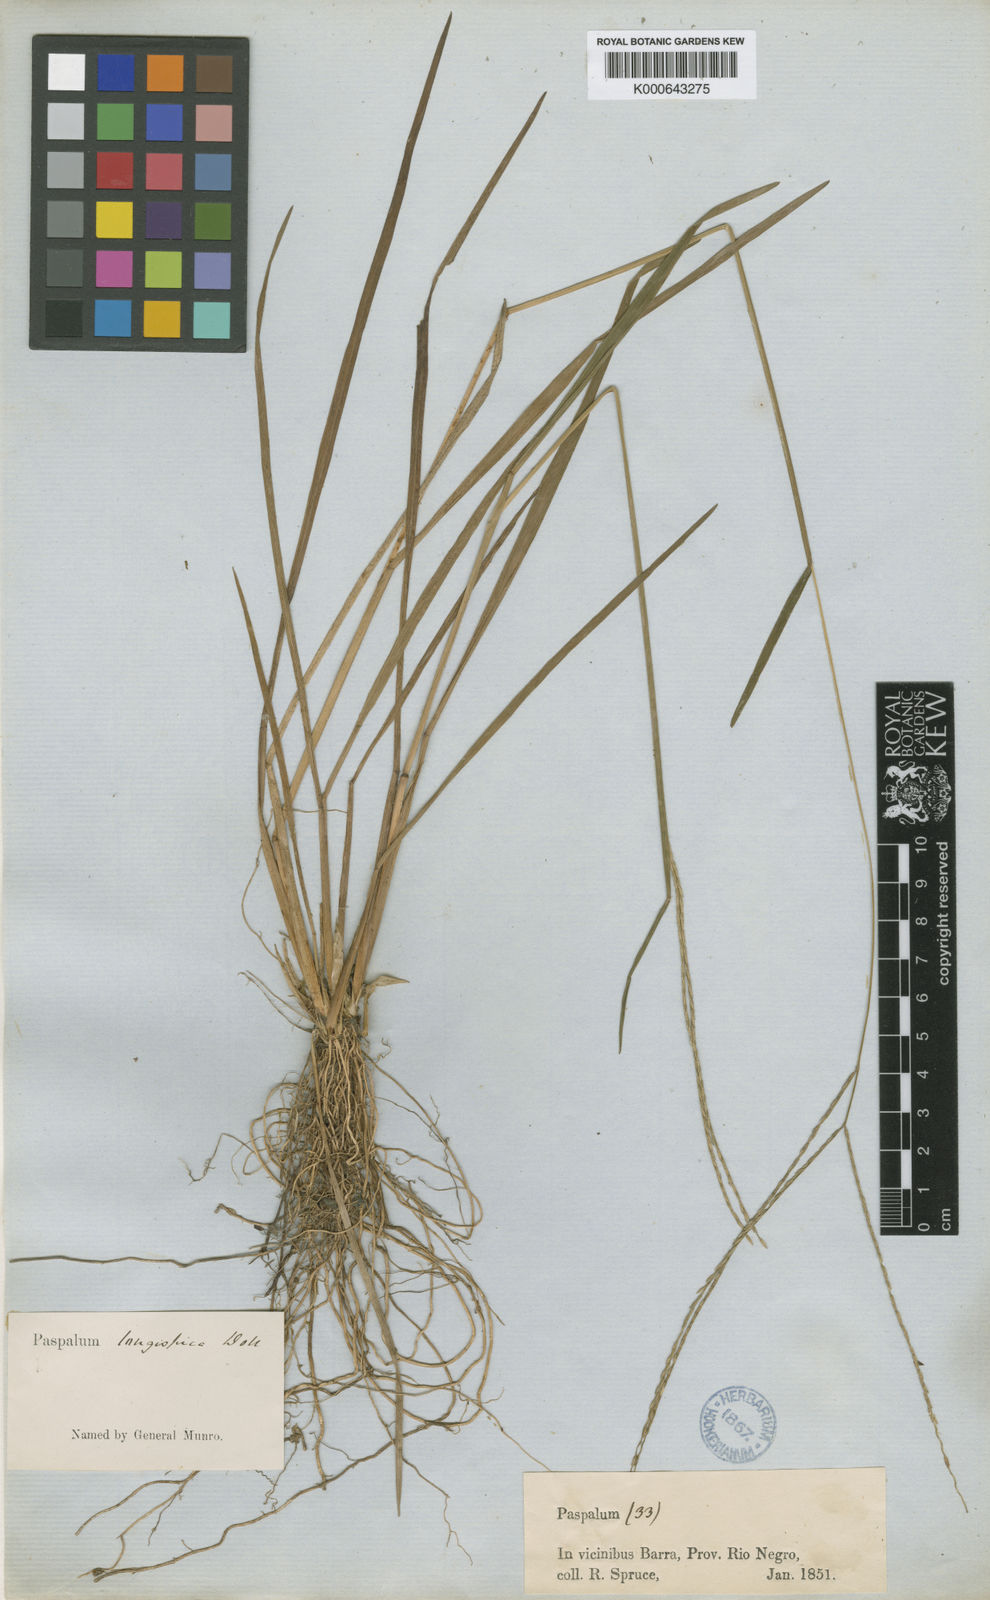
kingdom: Plantae
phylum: Tracheophyta
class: Liliopsida
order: Poales
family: Poaceae
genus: Axonopus
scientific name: Axonopus
